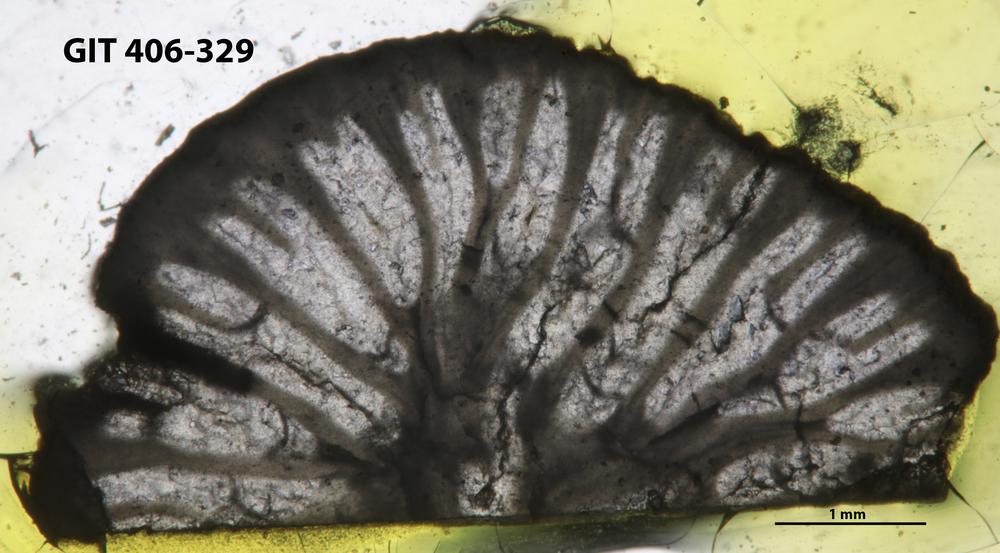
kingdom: Animalia
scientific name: Animalia
